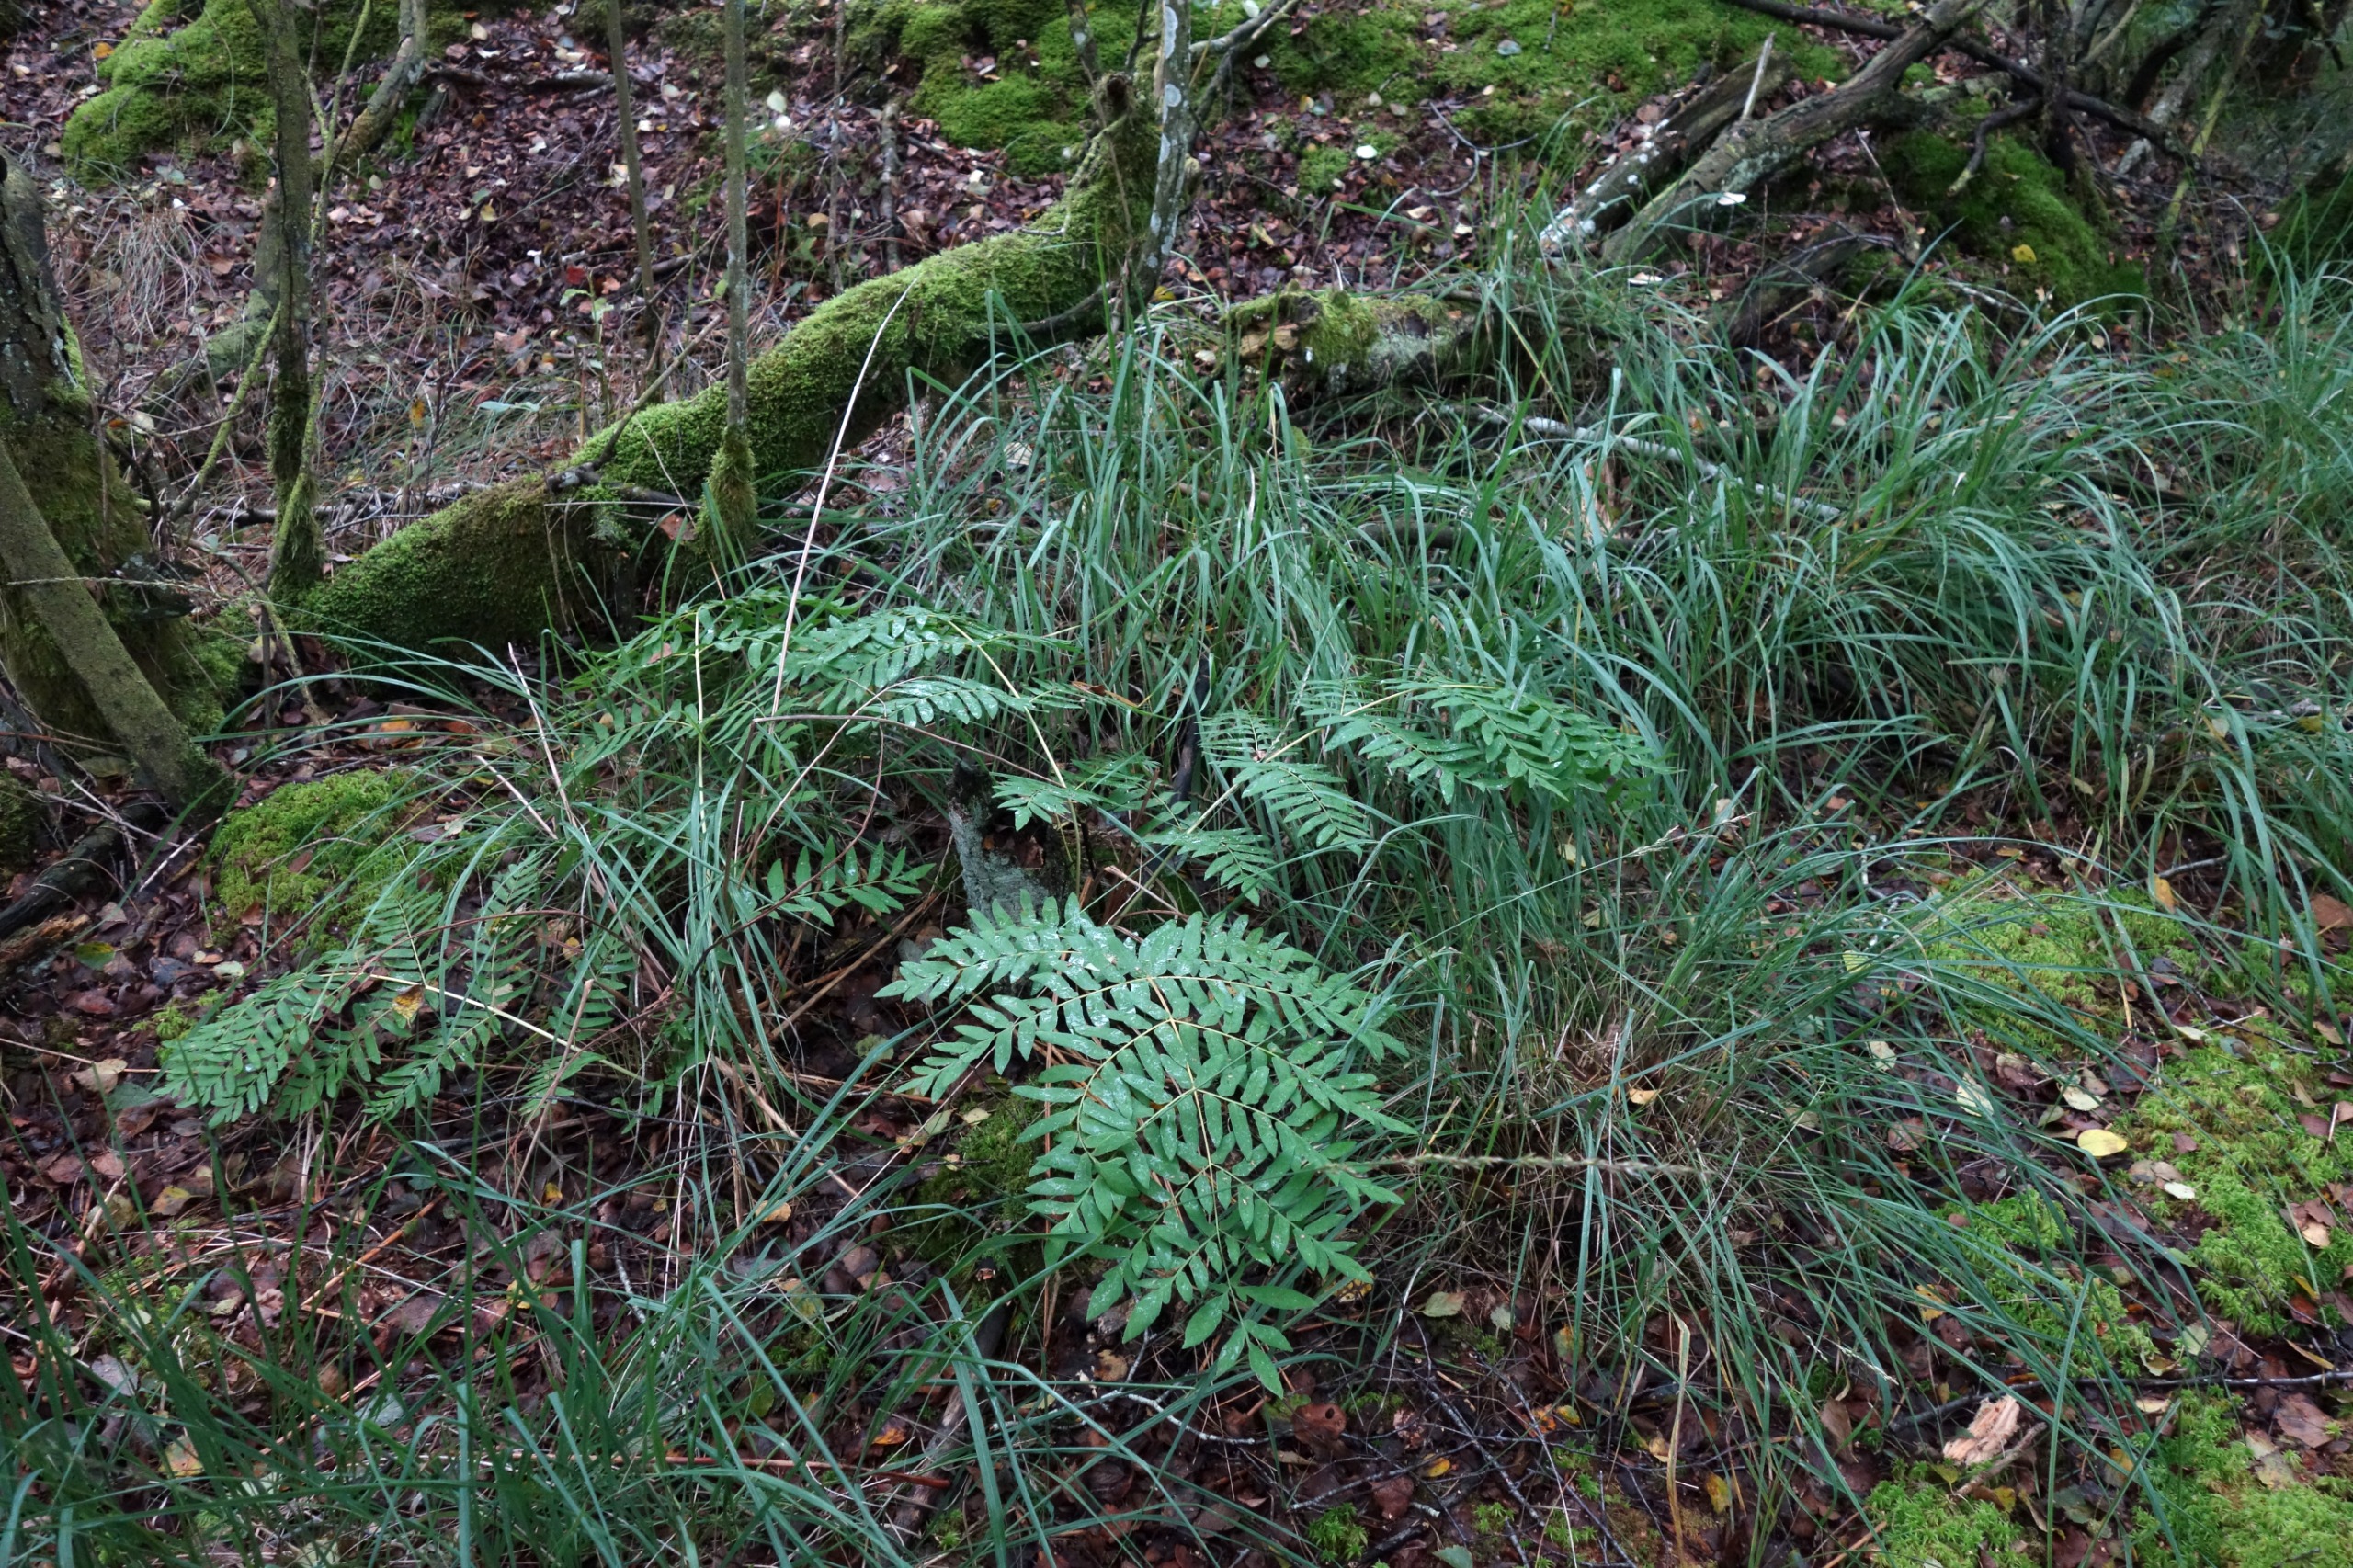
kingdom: Plantae
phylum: Tracheophyta
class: Polypodiopsida
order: Osmundales
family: Osmundaceae
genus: Osmunda
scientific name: Osmunda regalis
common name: Kongebregne
